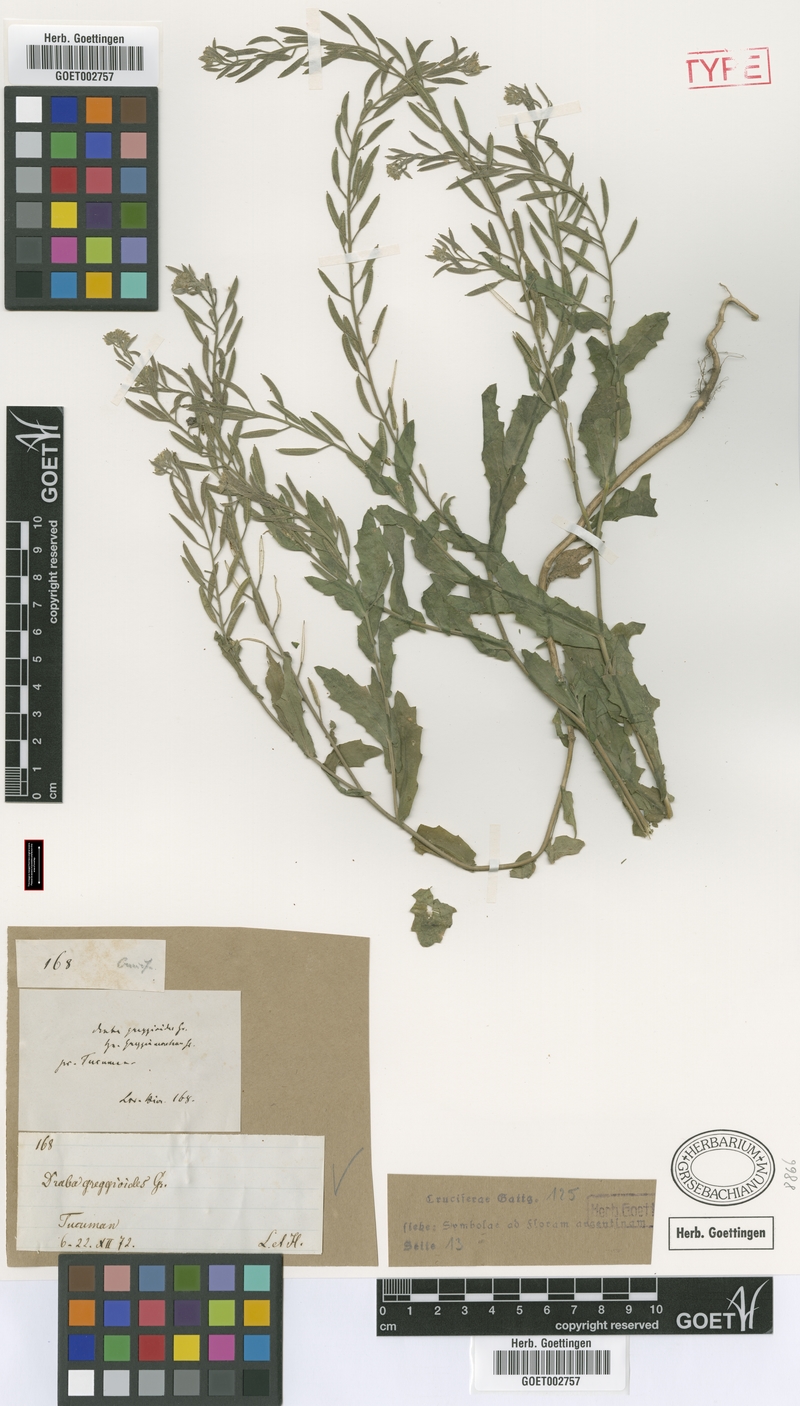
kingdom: Plantae
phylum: Tracheophyta
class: Magnoliopsida
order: Brassicales
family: Brassicaceae
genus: Exhalimolobos
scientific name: Exhalimolobos weddellii
